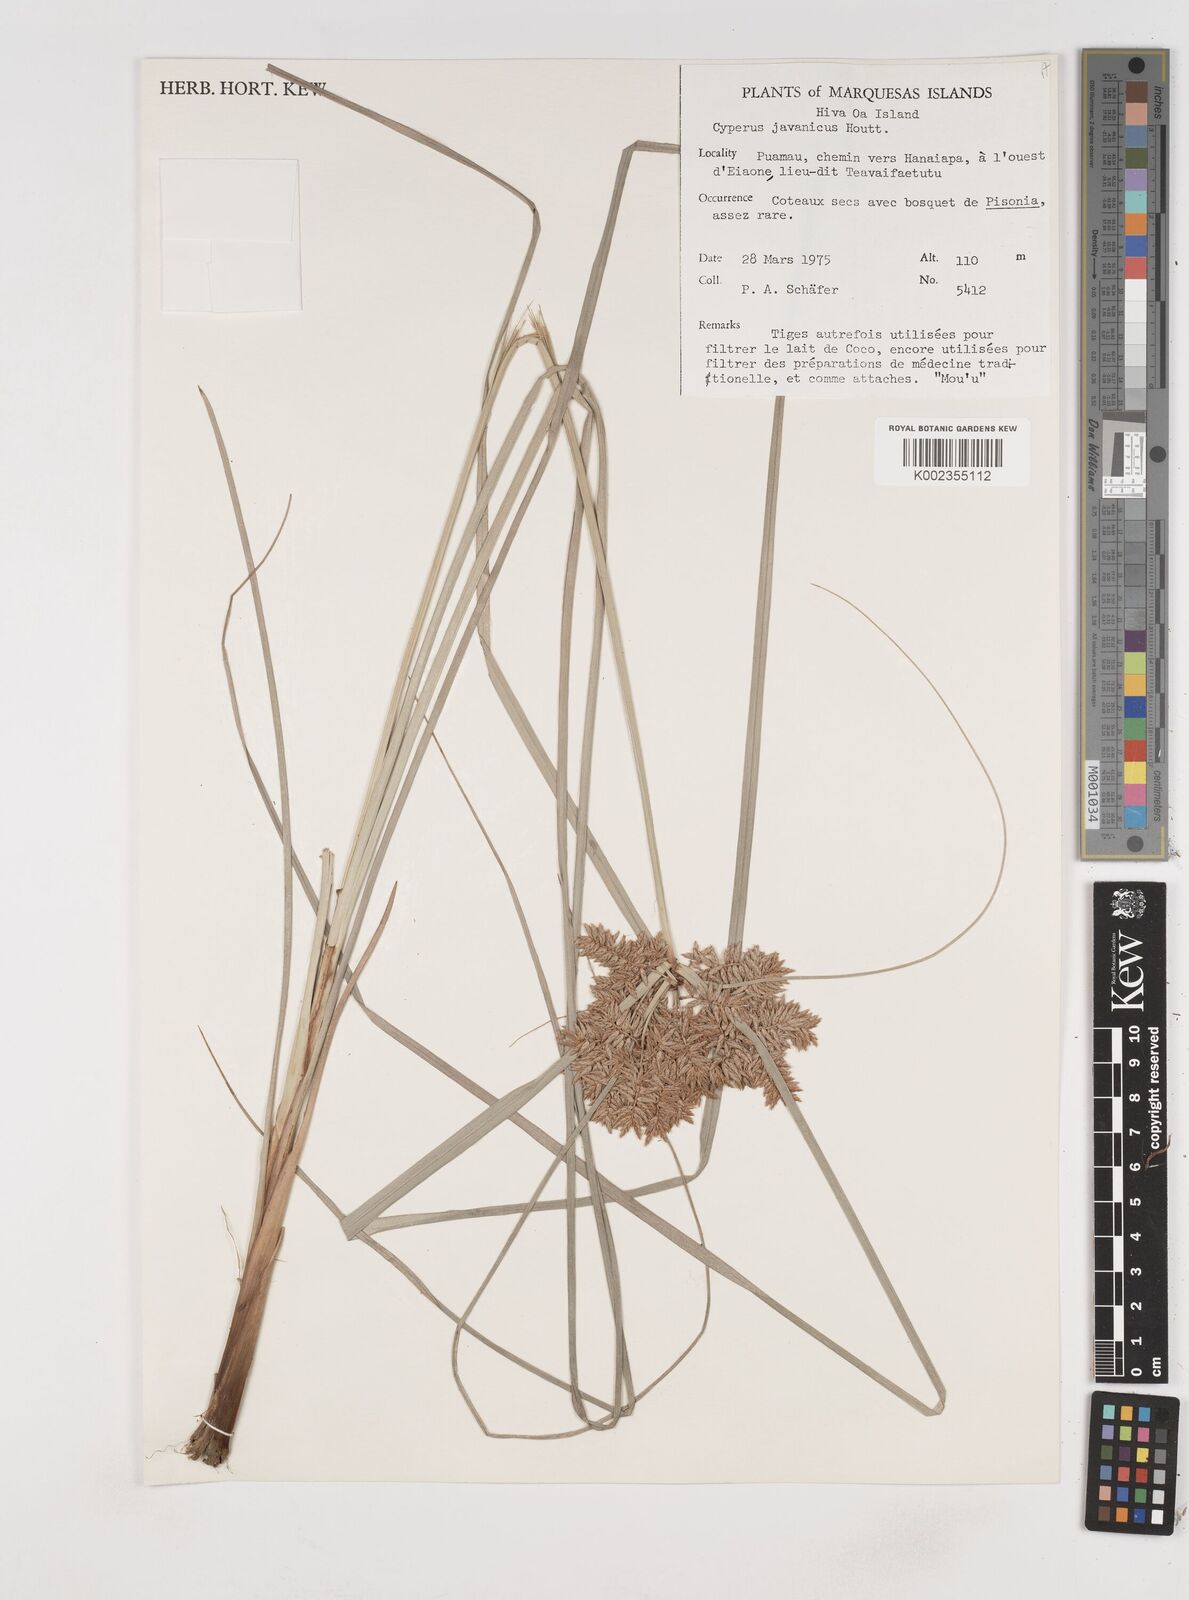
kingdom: Plantae
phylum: Tracheophyta
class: Liliopsida
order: Poales
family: Cyperaceae
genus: Cyperus
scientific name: Cyperus javanicus
